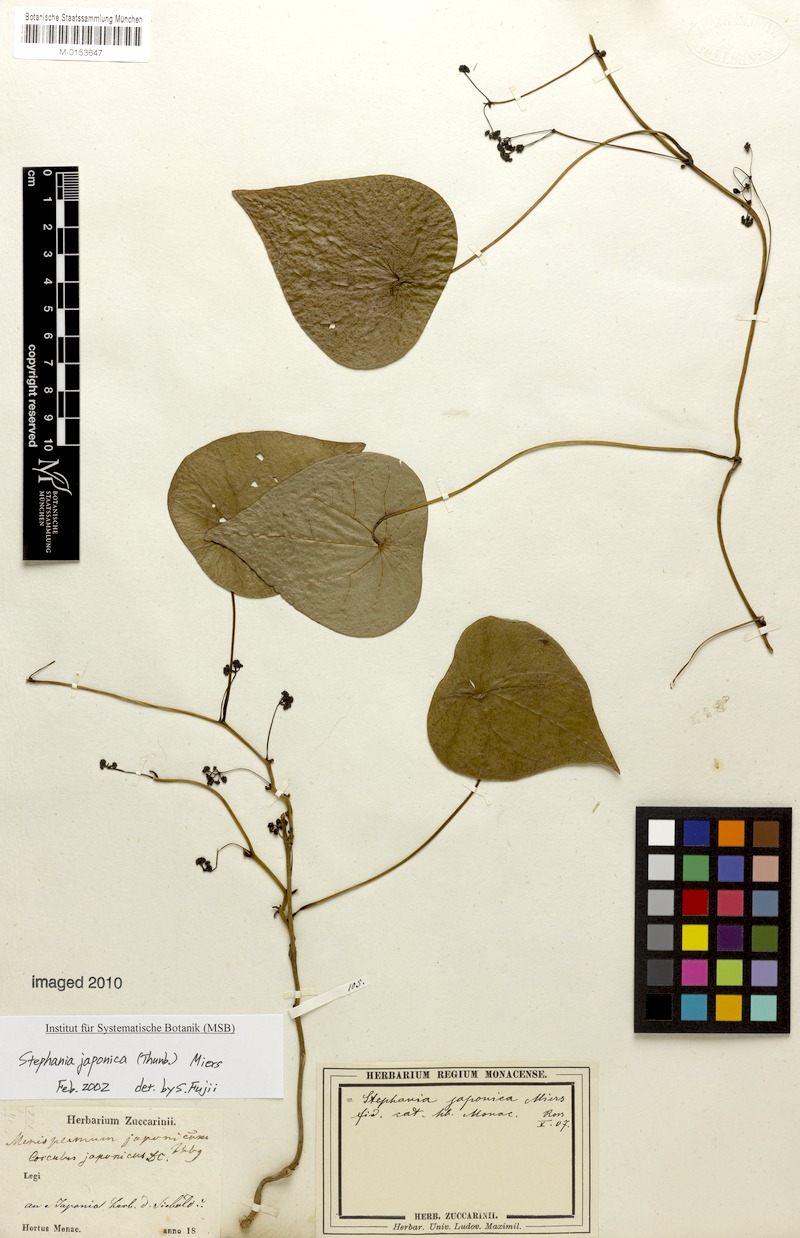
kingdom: Plantae
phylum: Tracheophyta
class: Magnoliopsida
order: Ranunculales
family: Menispermaceae
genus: Stephania
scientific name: Stephania japonica
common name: Snake vine
